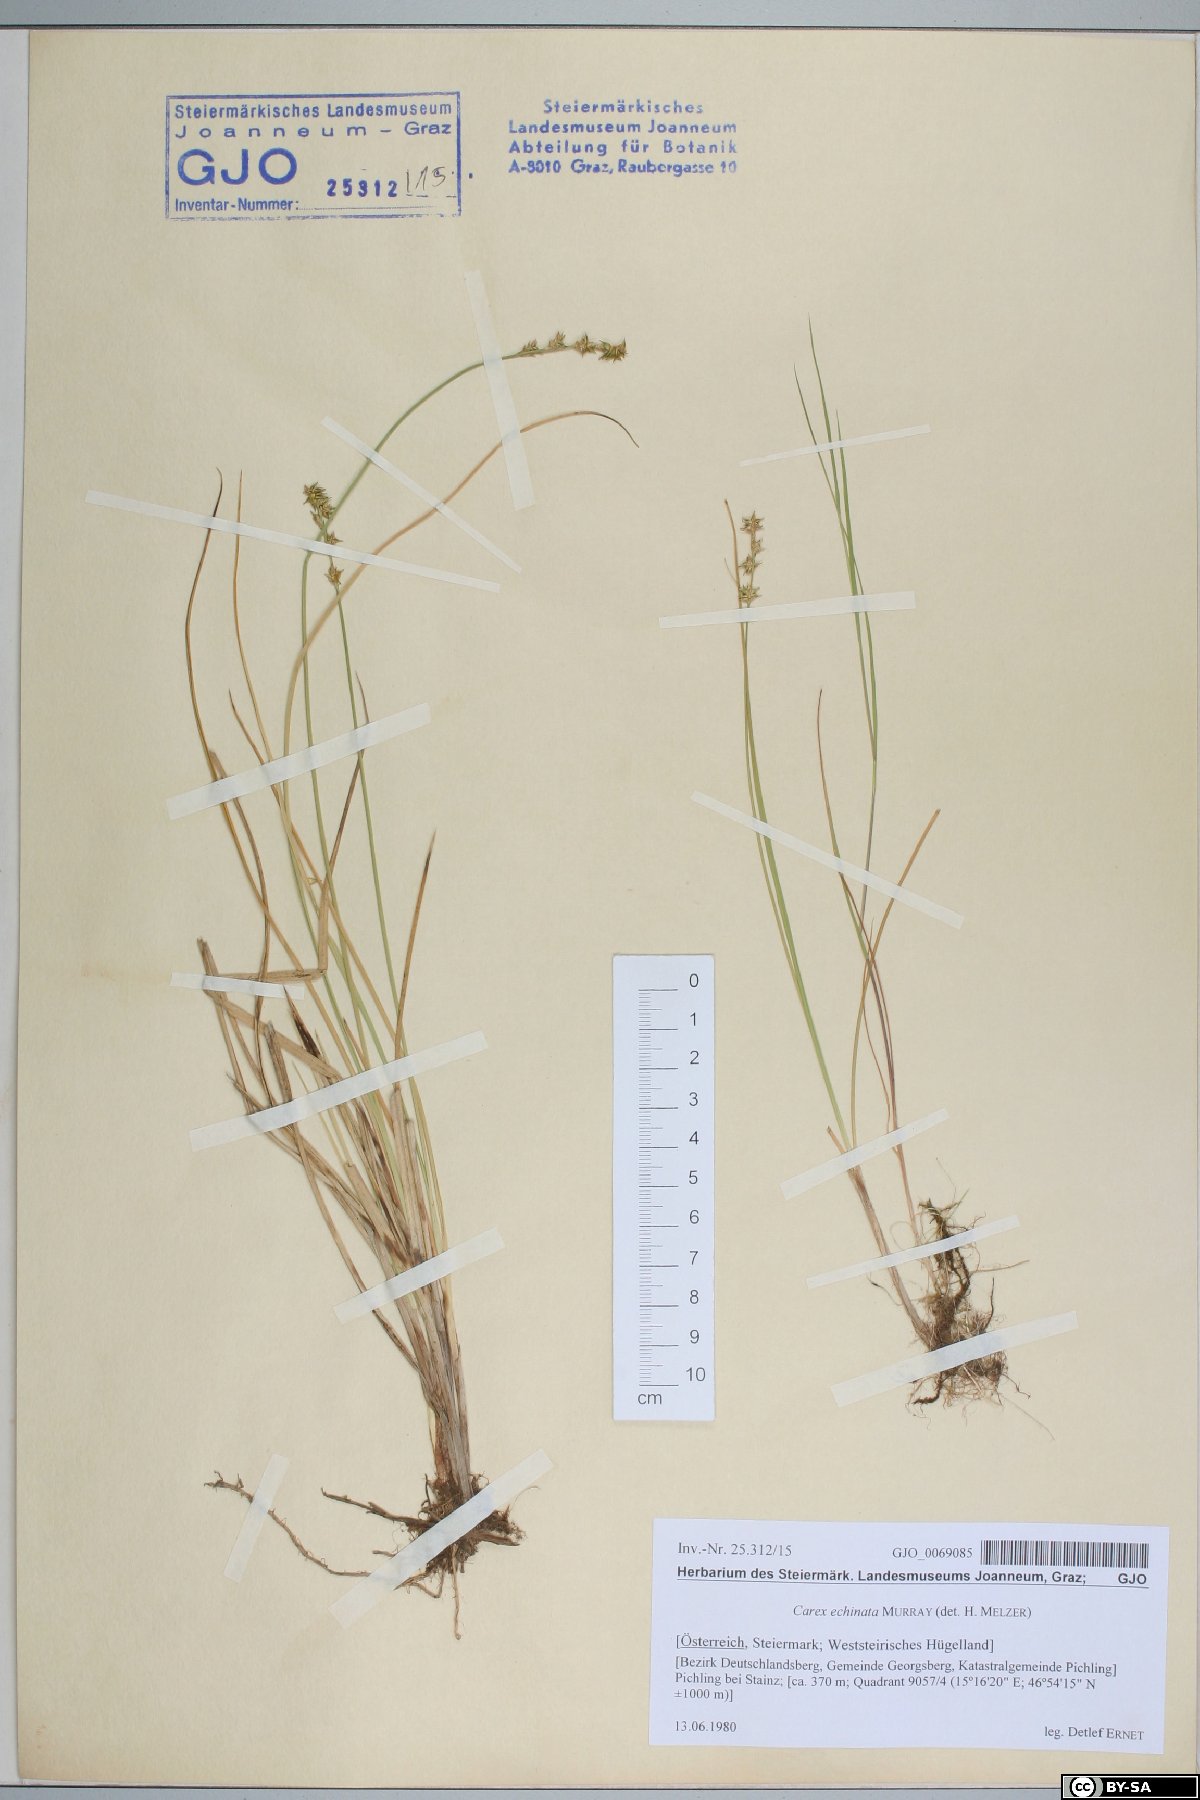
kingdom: Plantae
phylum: Tracheophyta
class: Liliopsida
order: Poales
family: Cyperaceae
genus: Carex
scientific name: Carex echinata
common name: Star sedge
